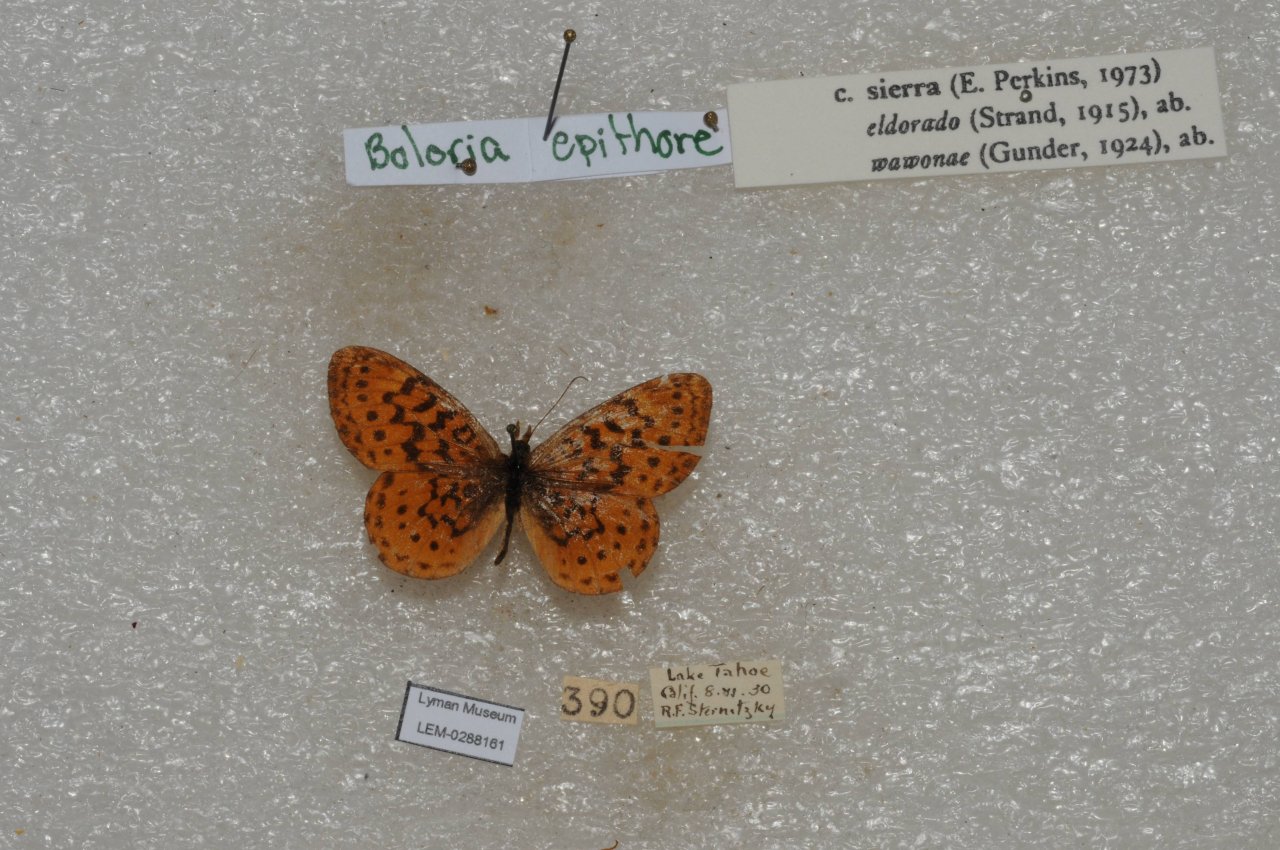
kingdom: Animalia
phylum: Arthropoda
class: Insecta
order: Lepidoptera
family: Nymphalidae
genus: Boloria
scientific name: Boloria epithore
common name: Pacific Fritillary
